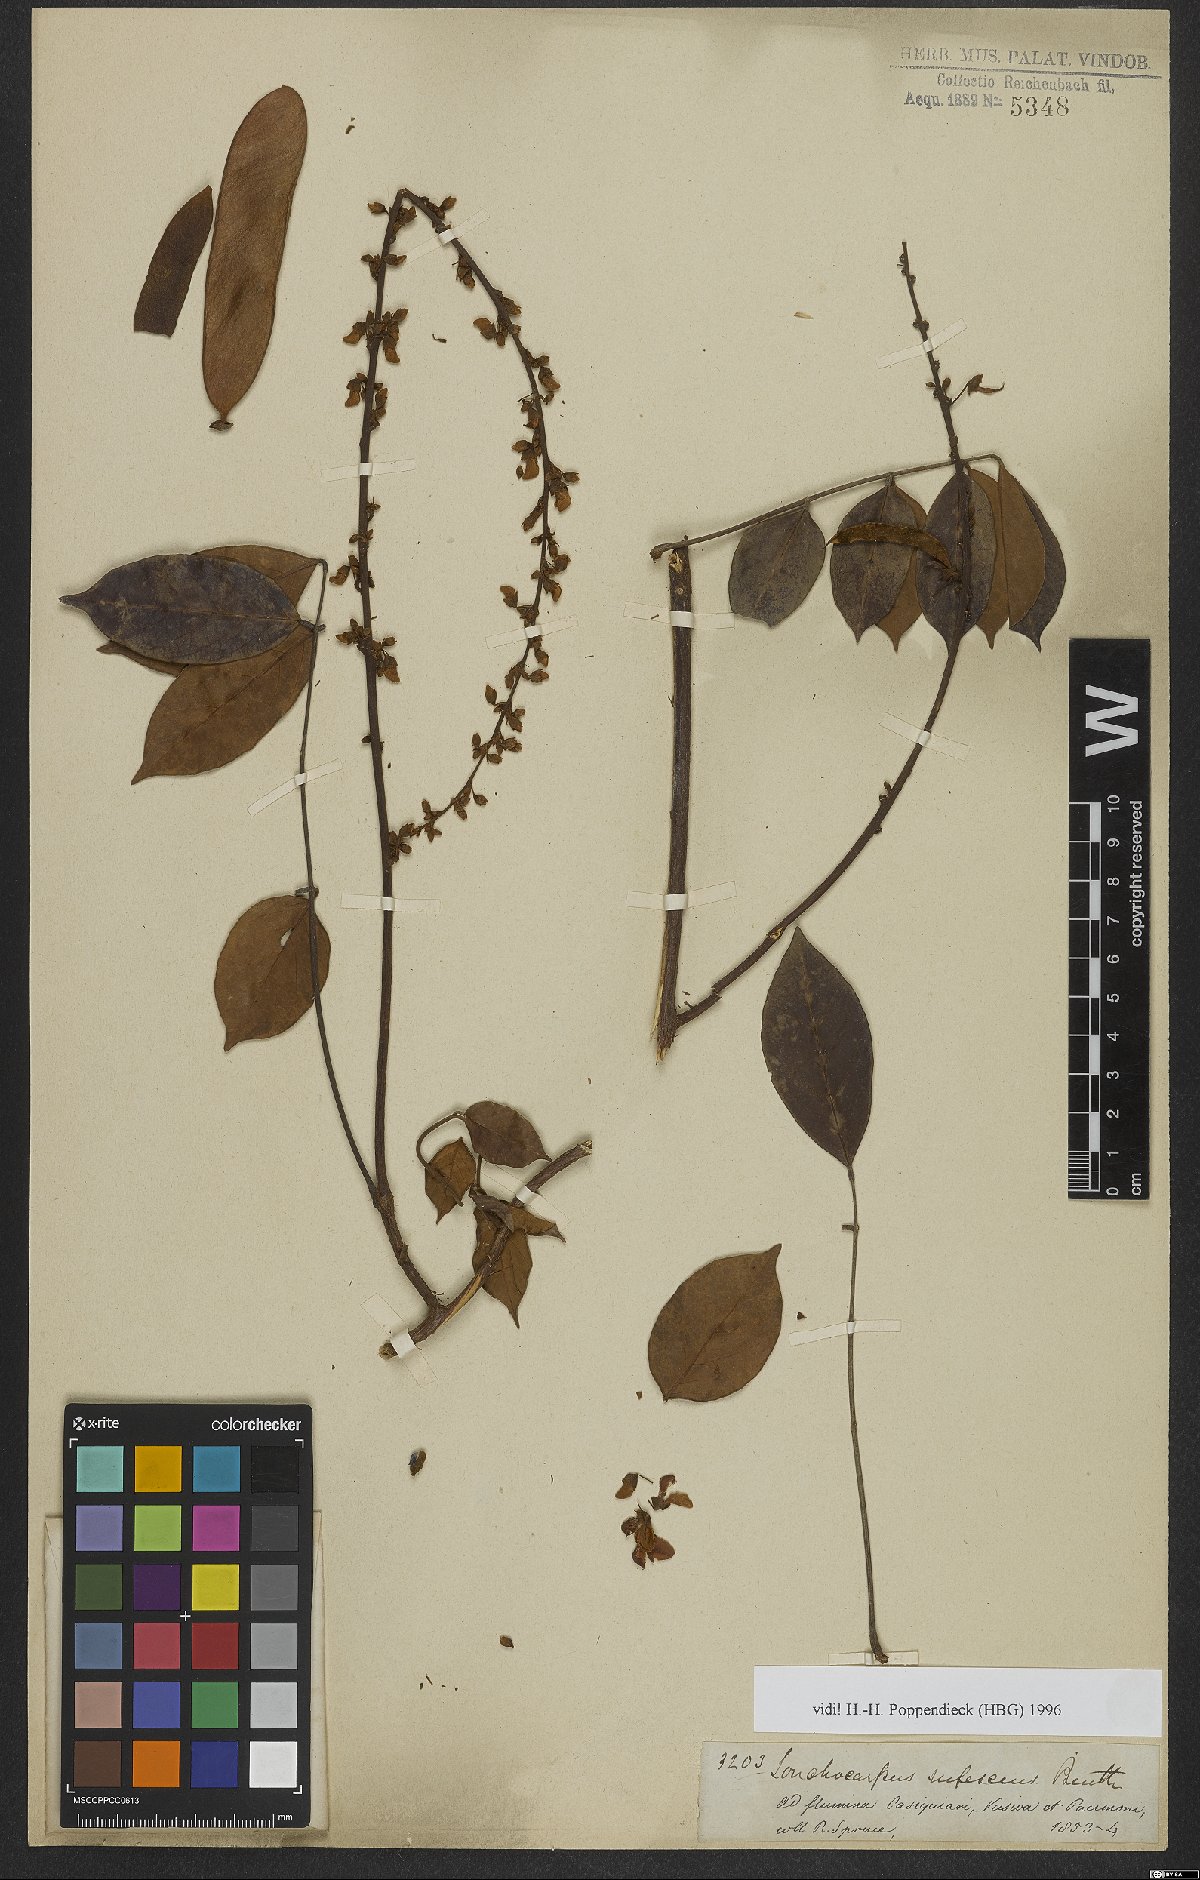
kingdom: Plantae
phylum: Tracheophyta
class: Magnoliopsida
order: Fabales
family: Fabaceae
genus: Deguelia
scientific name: Deguelia rufescens
